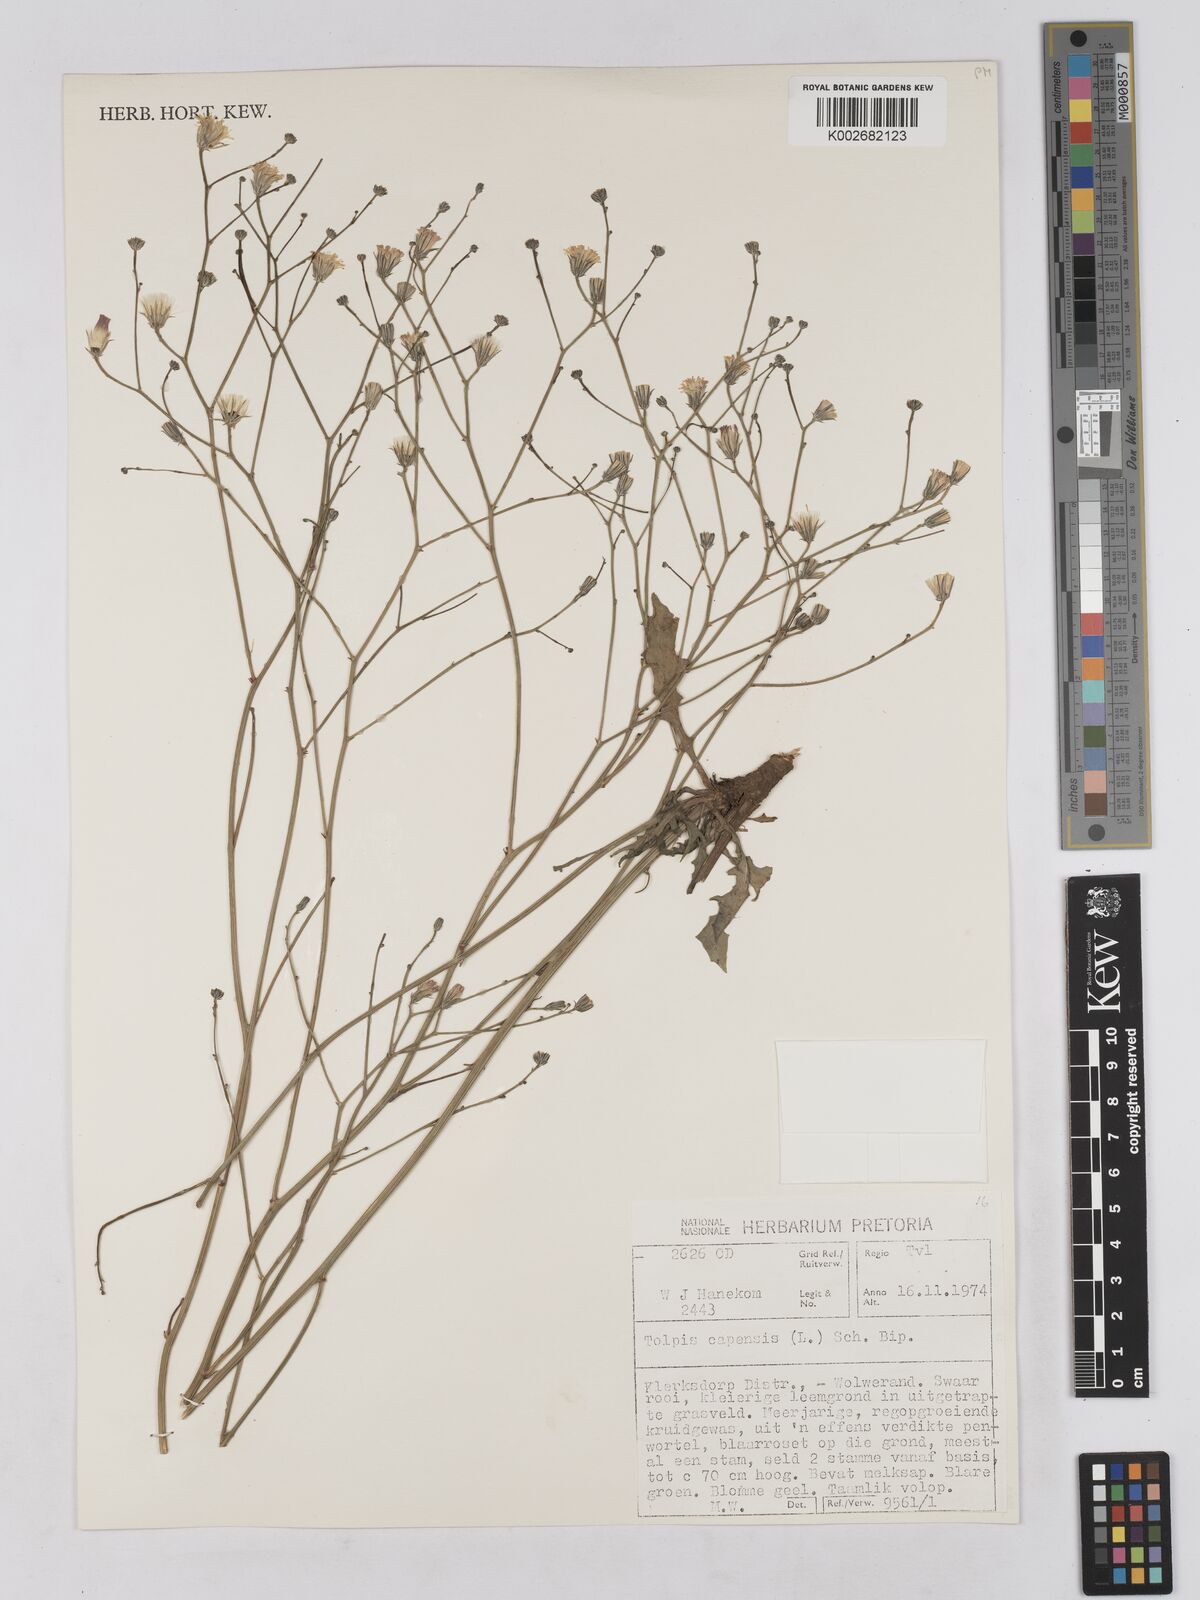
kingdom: Plantae
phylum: Tracheophyta
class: Magnoliopsida
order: Asterales
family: Asteraceae
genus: Tolpis
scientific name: Tolpis capensis
